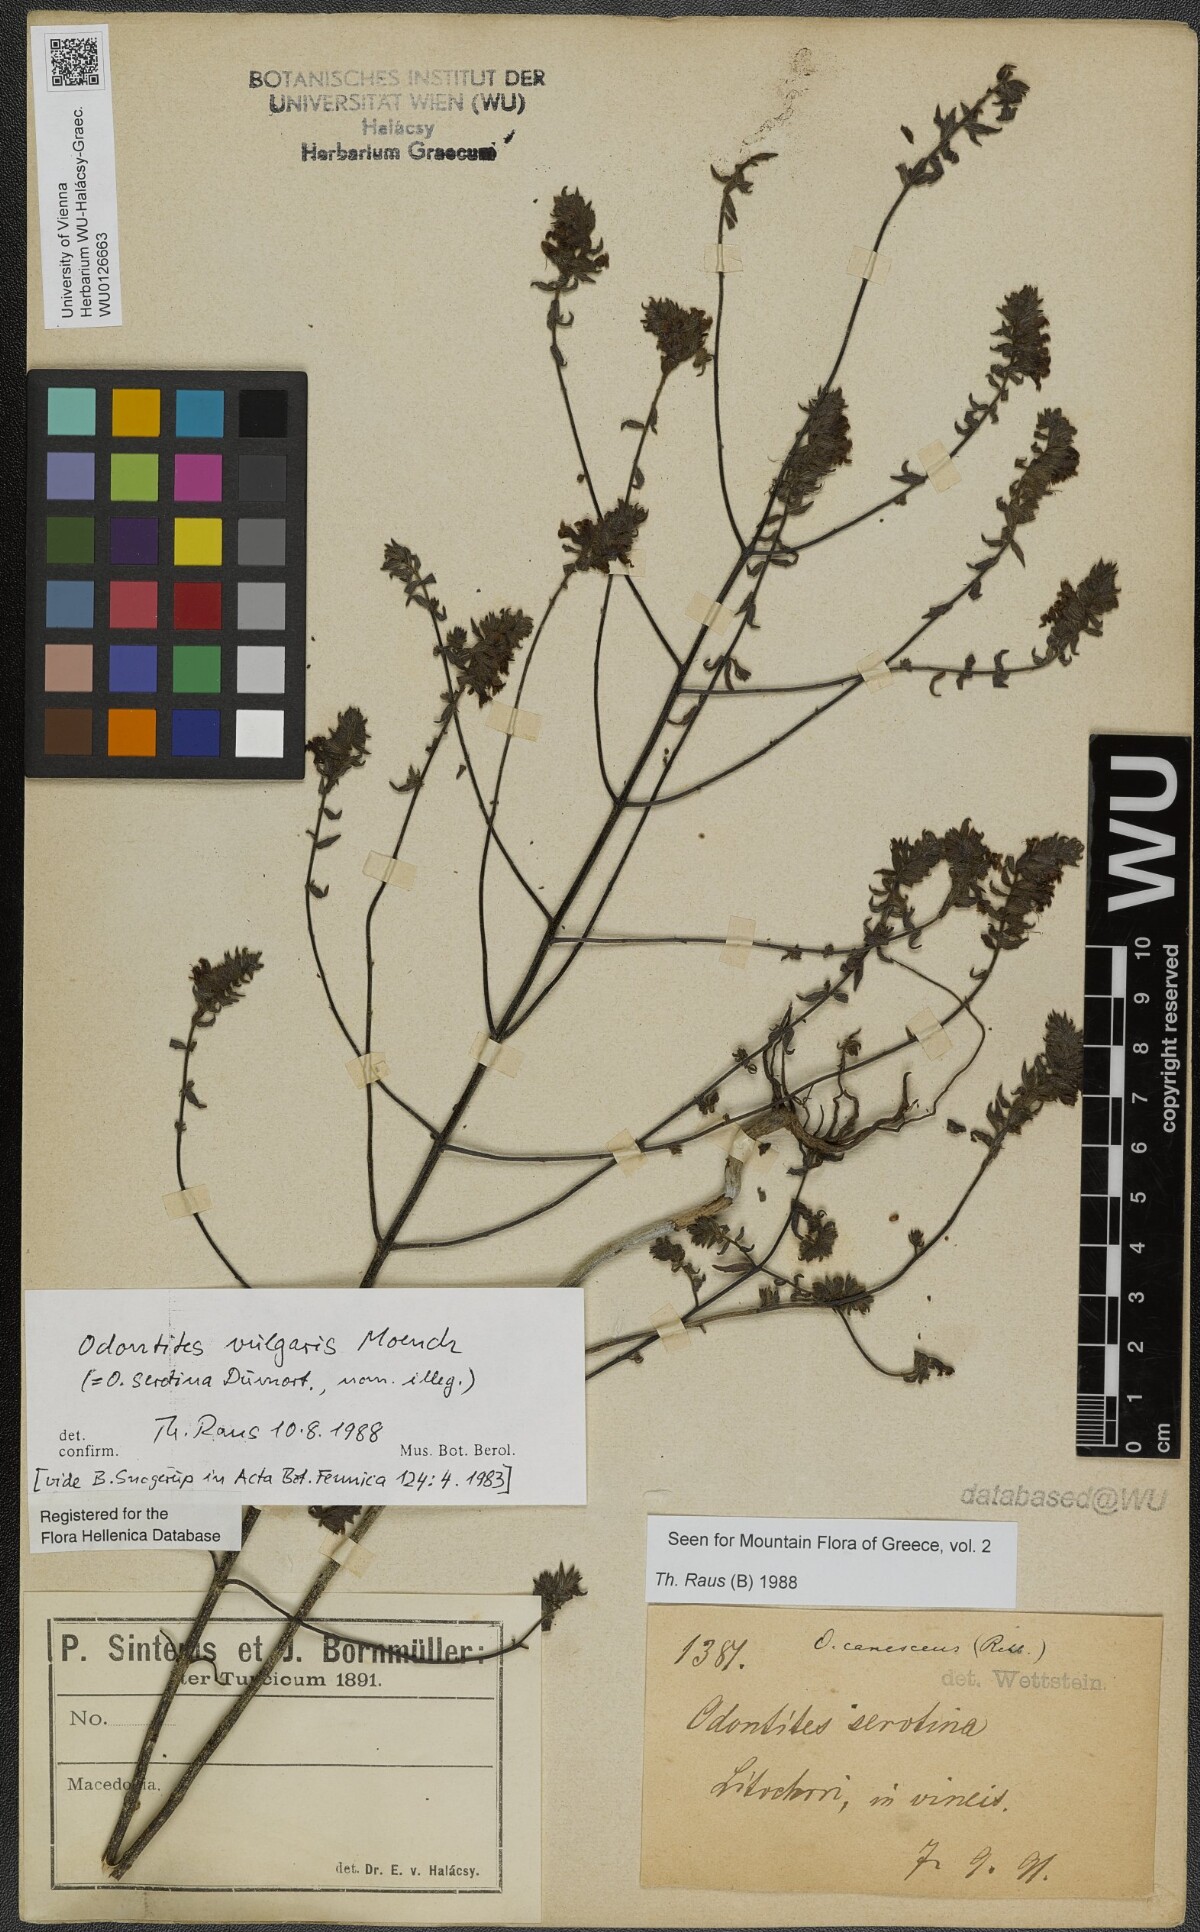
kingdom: Plantae
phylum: Tracheophyta
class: Magnoliopsida
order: Lamiales
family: Orobanchaceae
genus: Odontites
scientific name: Odontites vulgaris
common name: Broomrape
